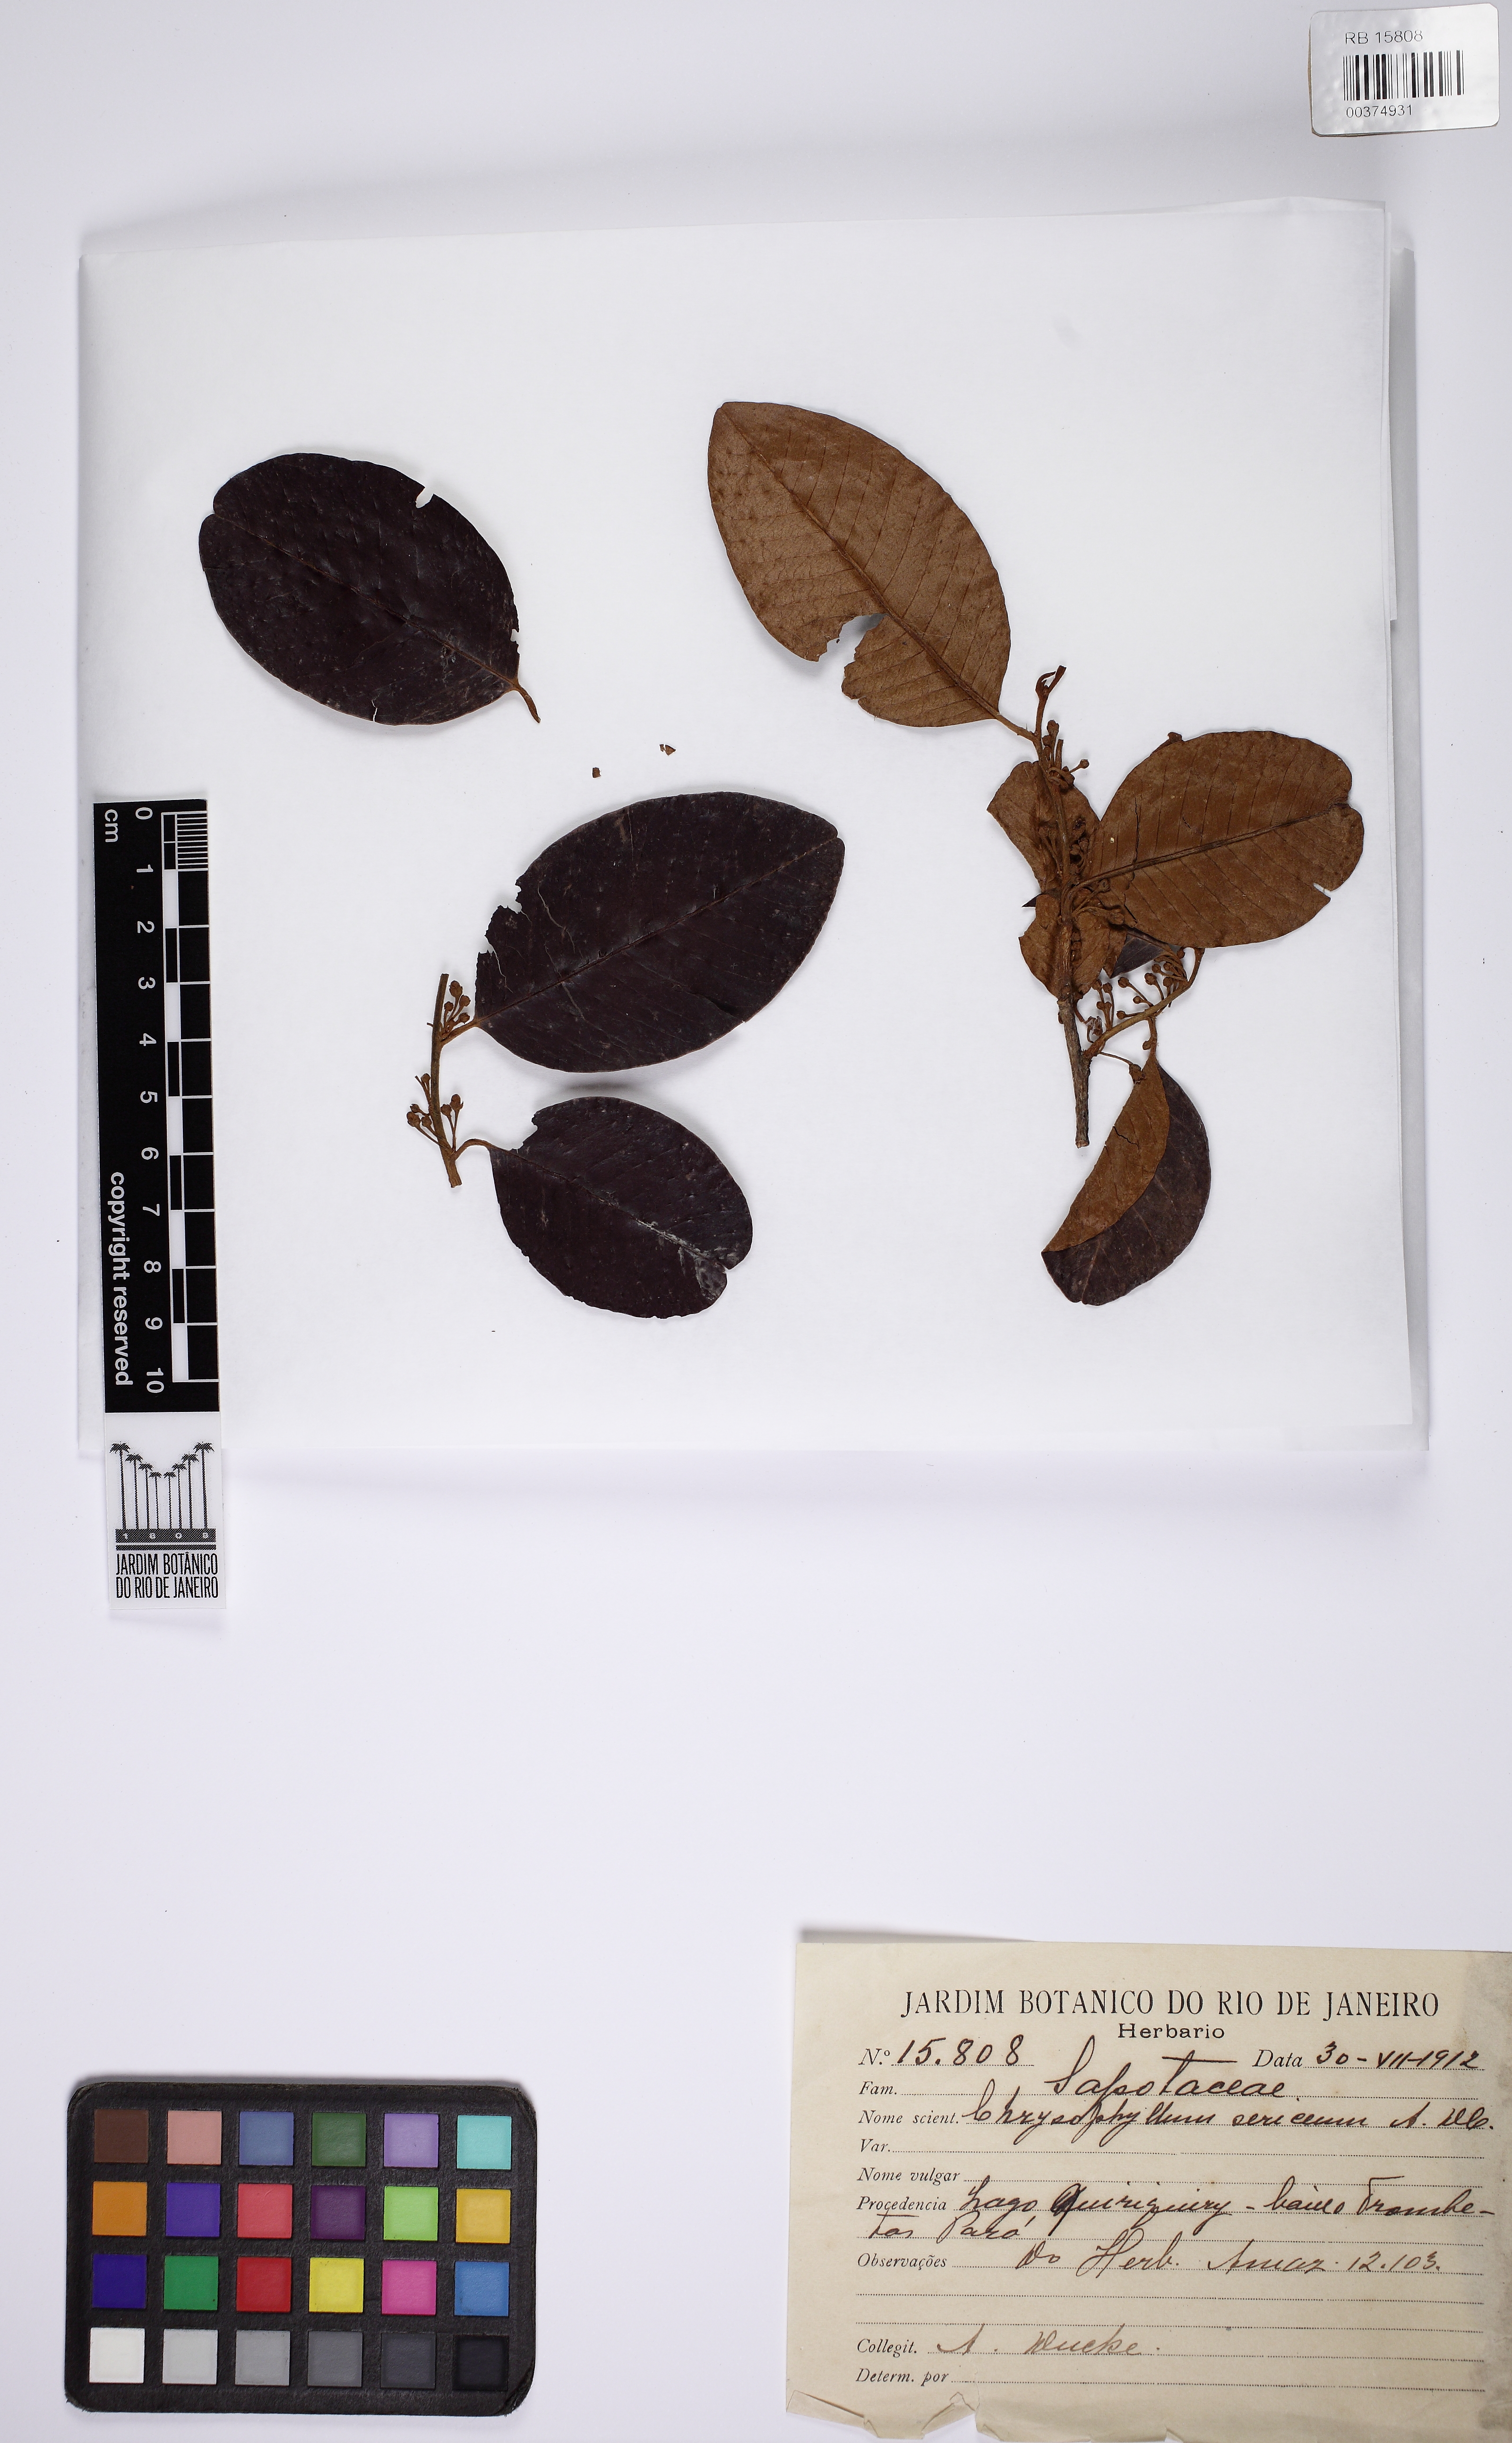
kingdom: Plantae
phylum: Tracheophyta
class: Magnoliopsida
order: Ericales
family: Sapotaceae
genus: Chrysophyllum
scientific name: Chrysophyllum argenteum
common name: Smooth star apple
